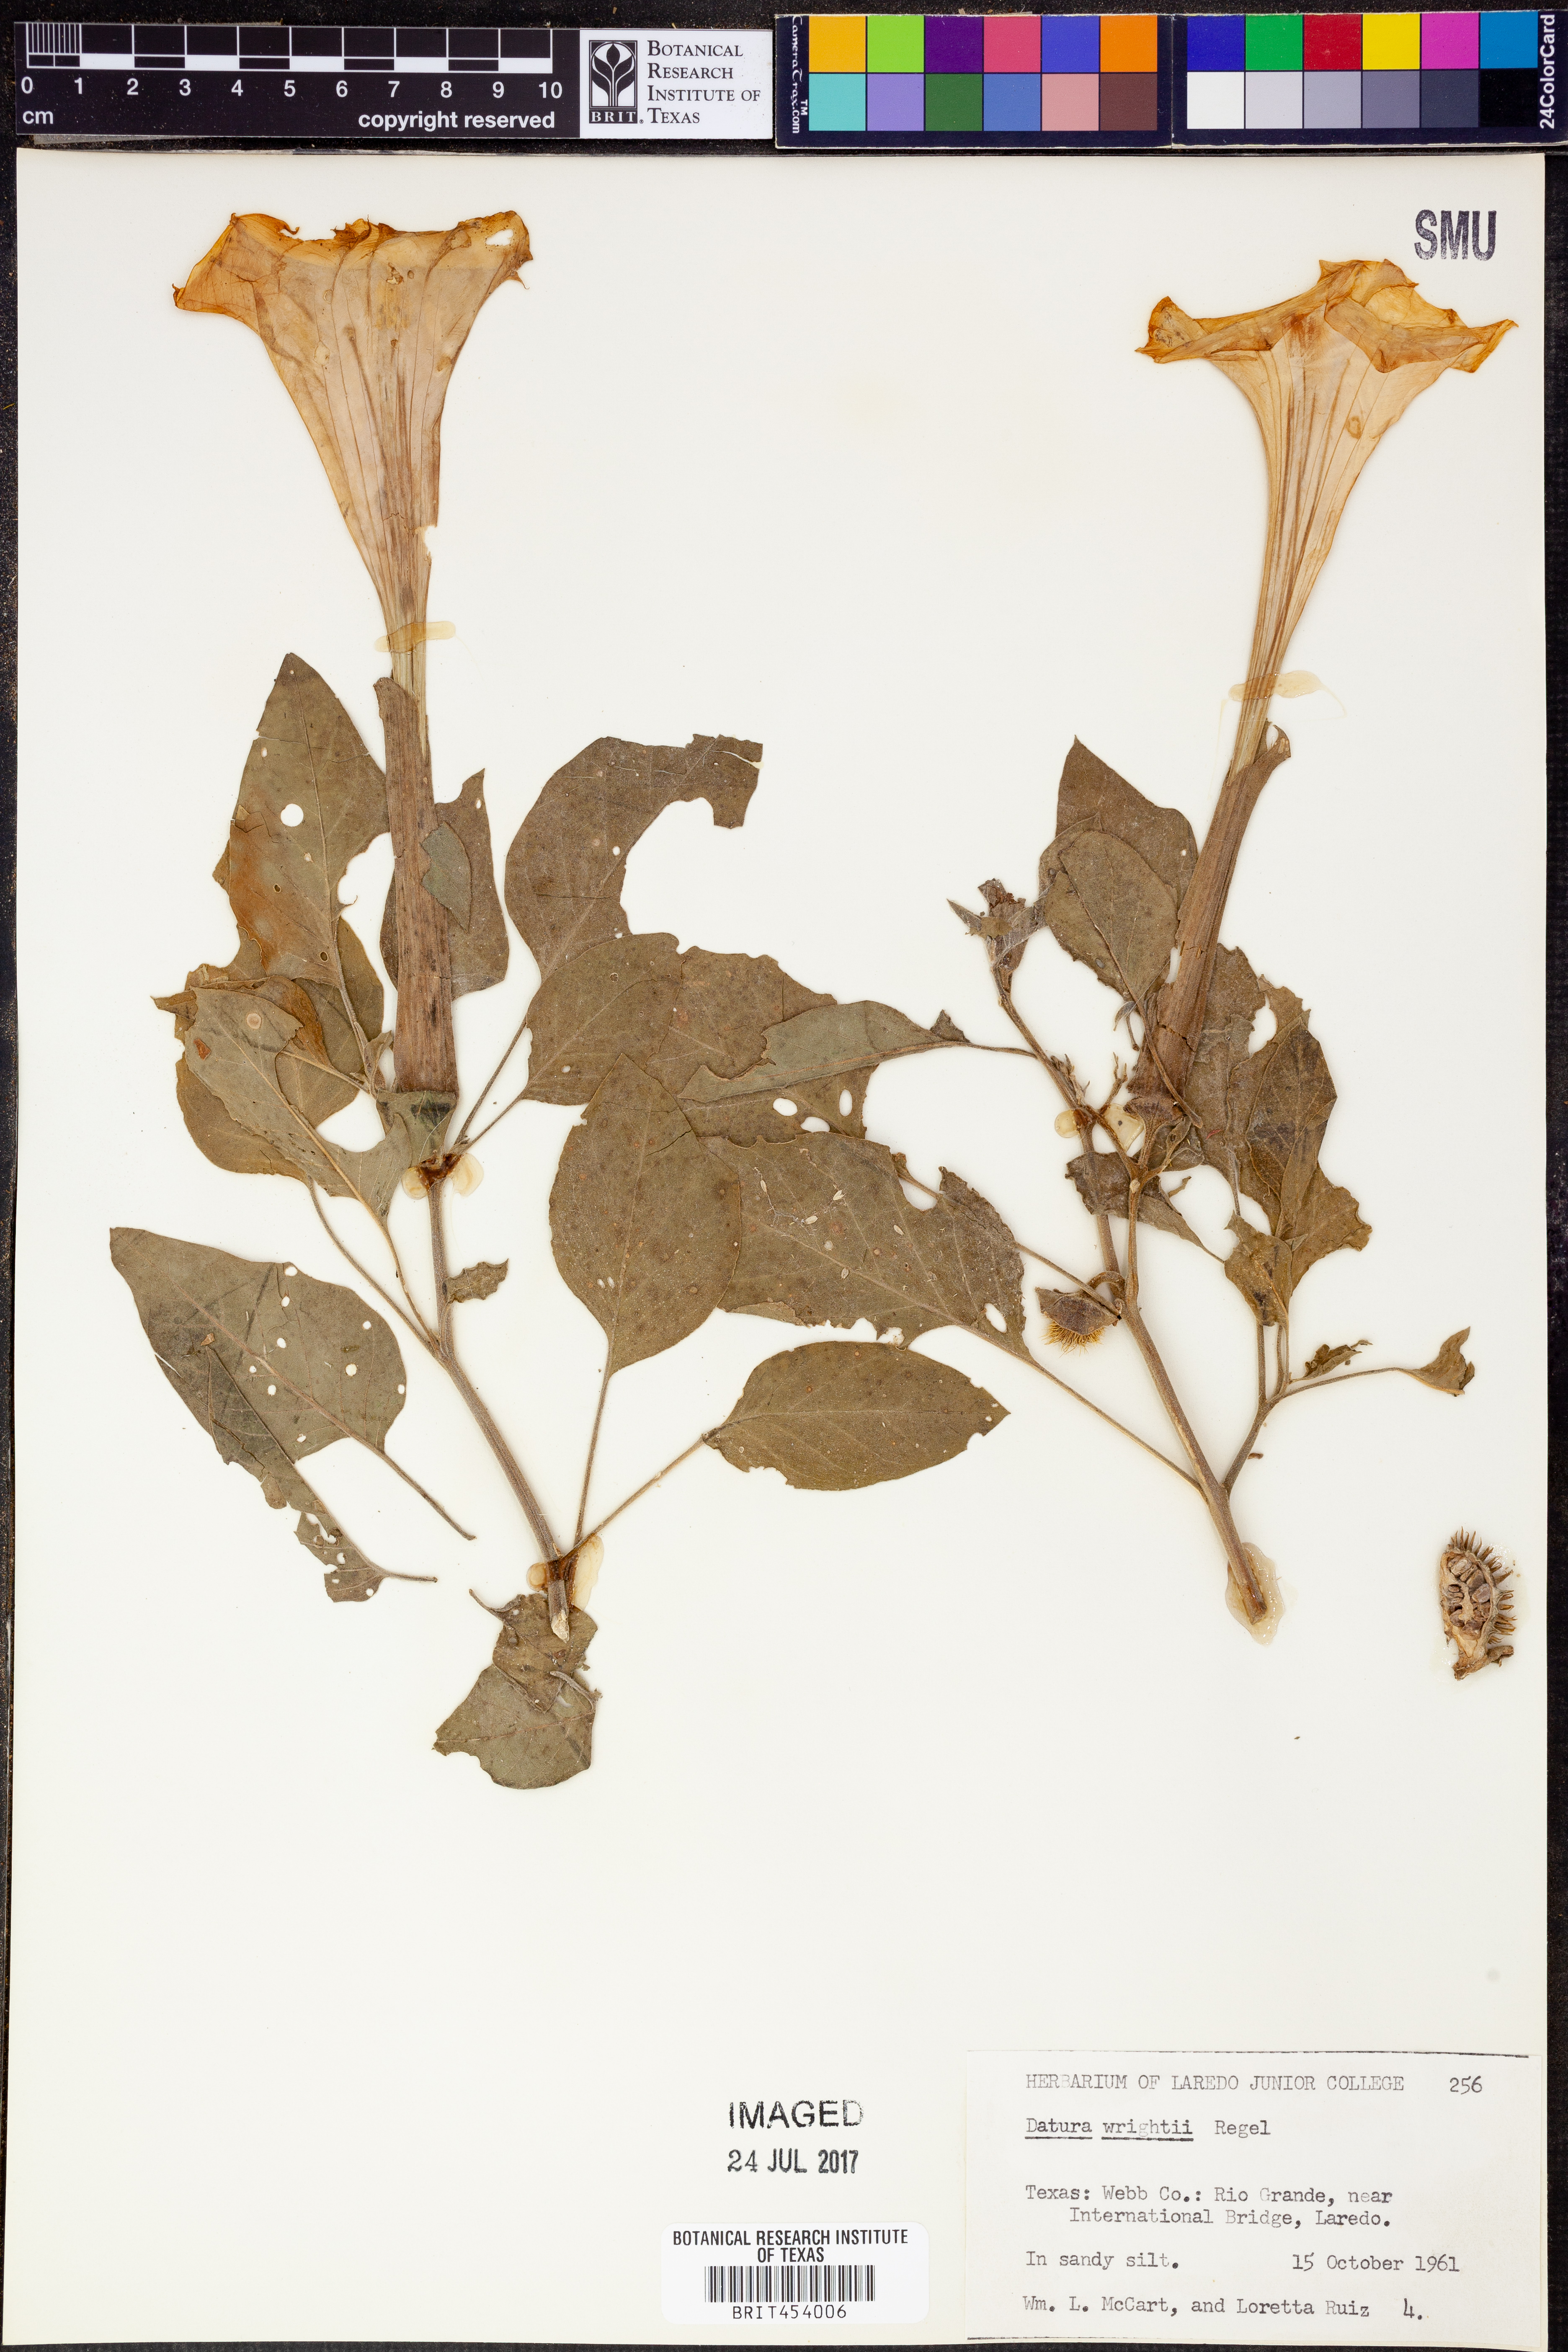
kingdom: Plantae
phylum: Tracheophyta
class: Magnoliopsida
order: Solanales
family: Solanaceae
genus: Datura
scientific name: Datura wrightii
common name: Sacred thorn-apple
